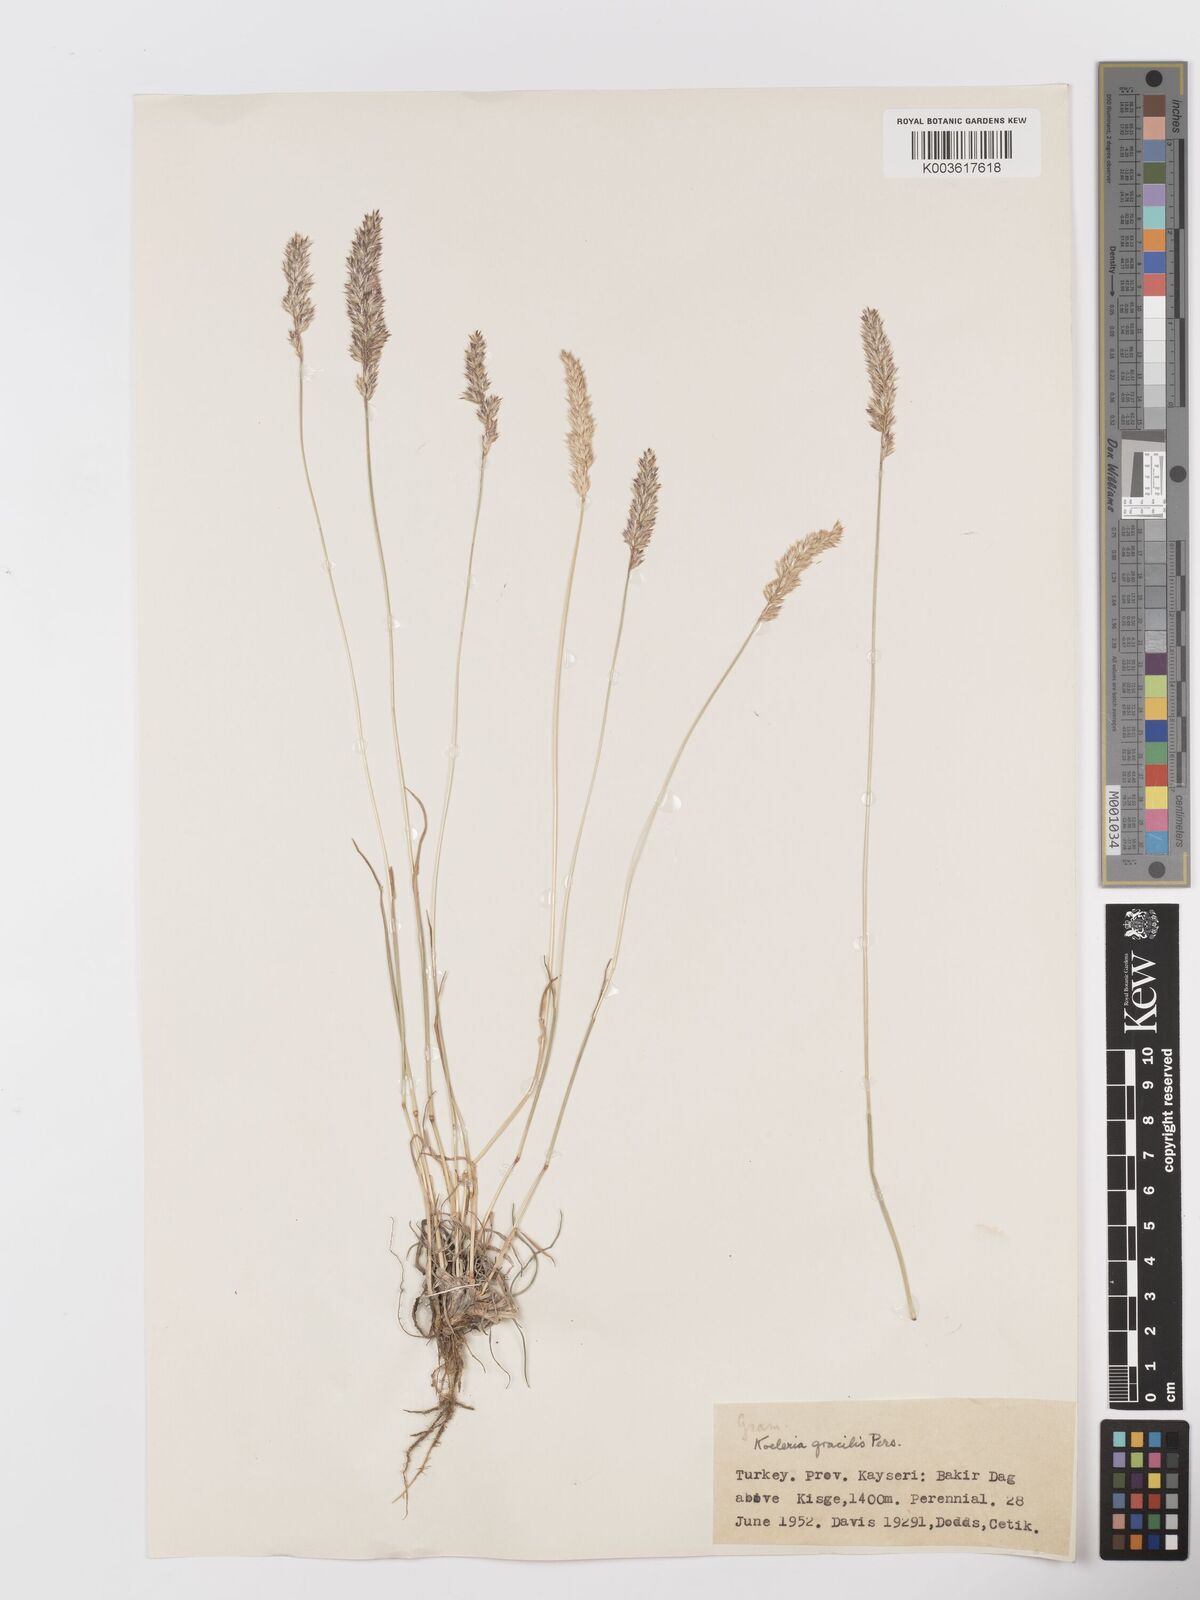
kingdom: Plantae
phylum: Tracheophyta
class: Liliopsida
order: Poales
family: Poaceae
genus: Koeleria
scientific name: Koeleria macrantha
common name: Crested hair-grass
